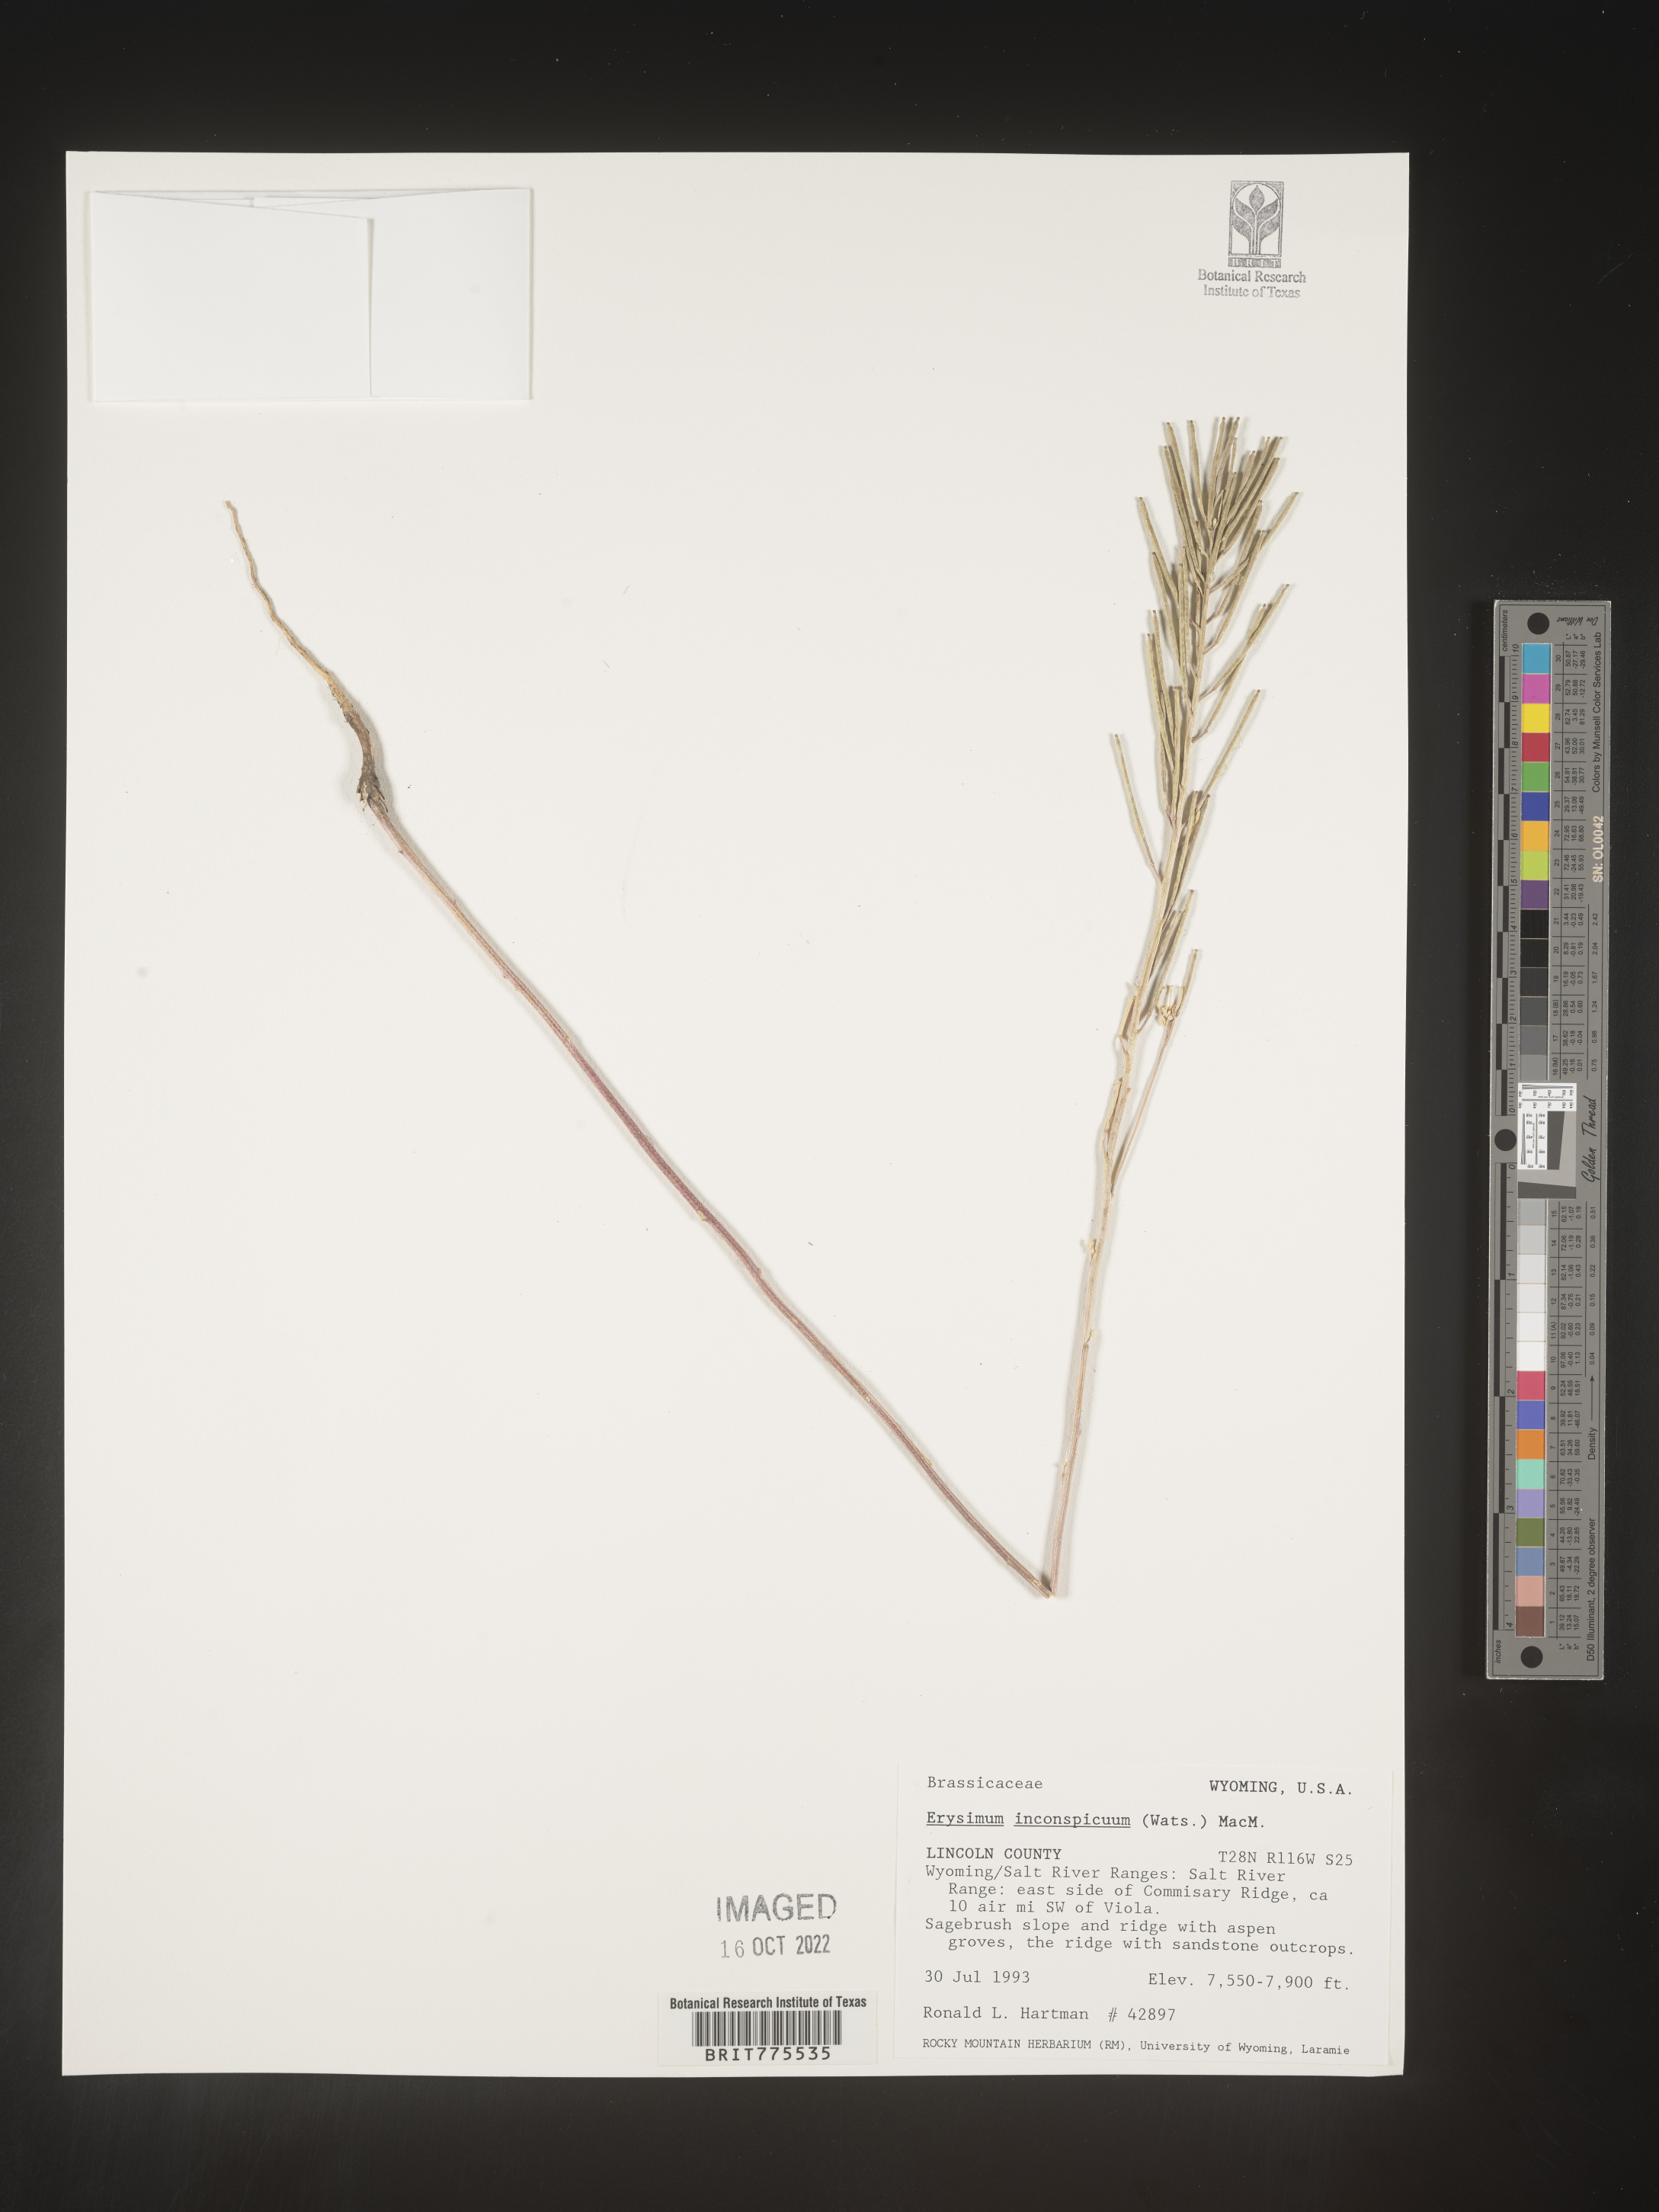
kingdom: Plantae
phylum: Tracheophyta
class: Magnoliopsida
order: Brassicales
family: Brassicaceae
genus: Erysimum
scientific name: Erysimum
